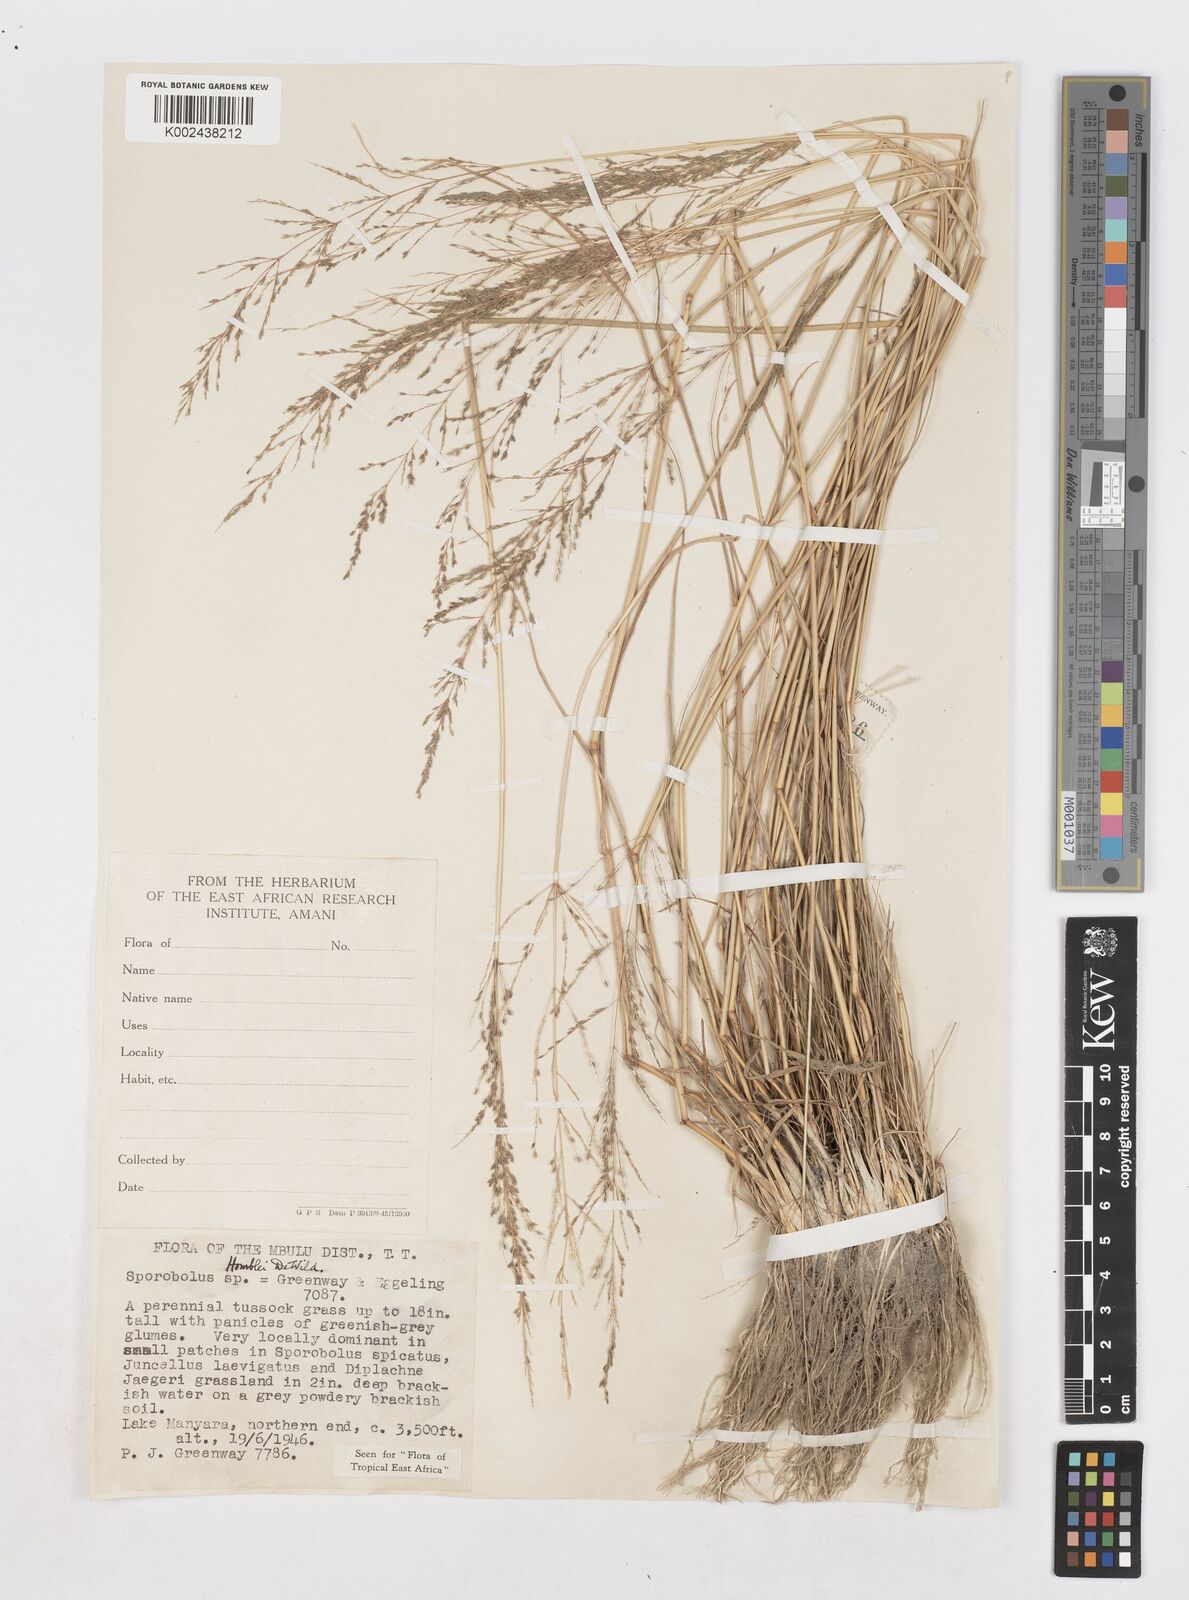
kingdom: Plantae
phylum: Tracheophyta
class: Liliopsida
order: Poales
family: Poaceae
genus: Sporobolus
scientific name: Sporobolus ioclados
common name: Pan dropseed
